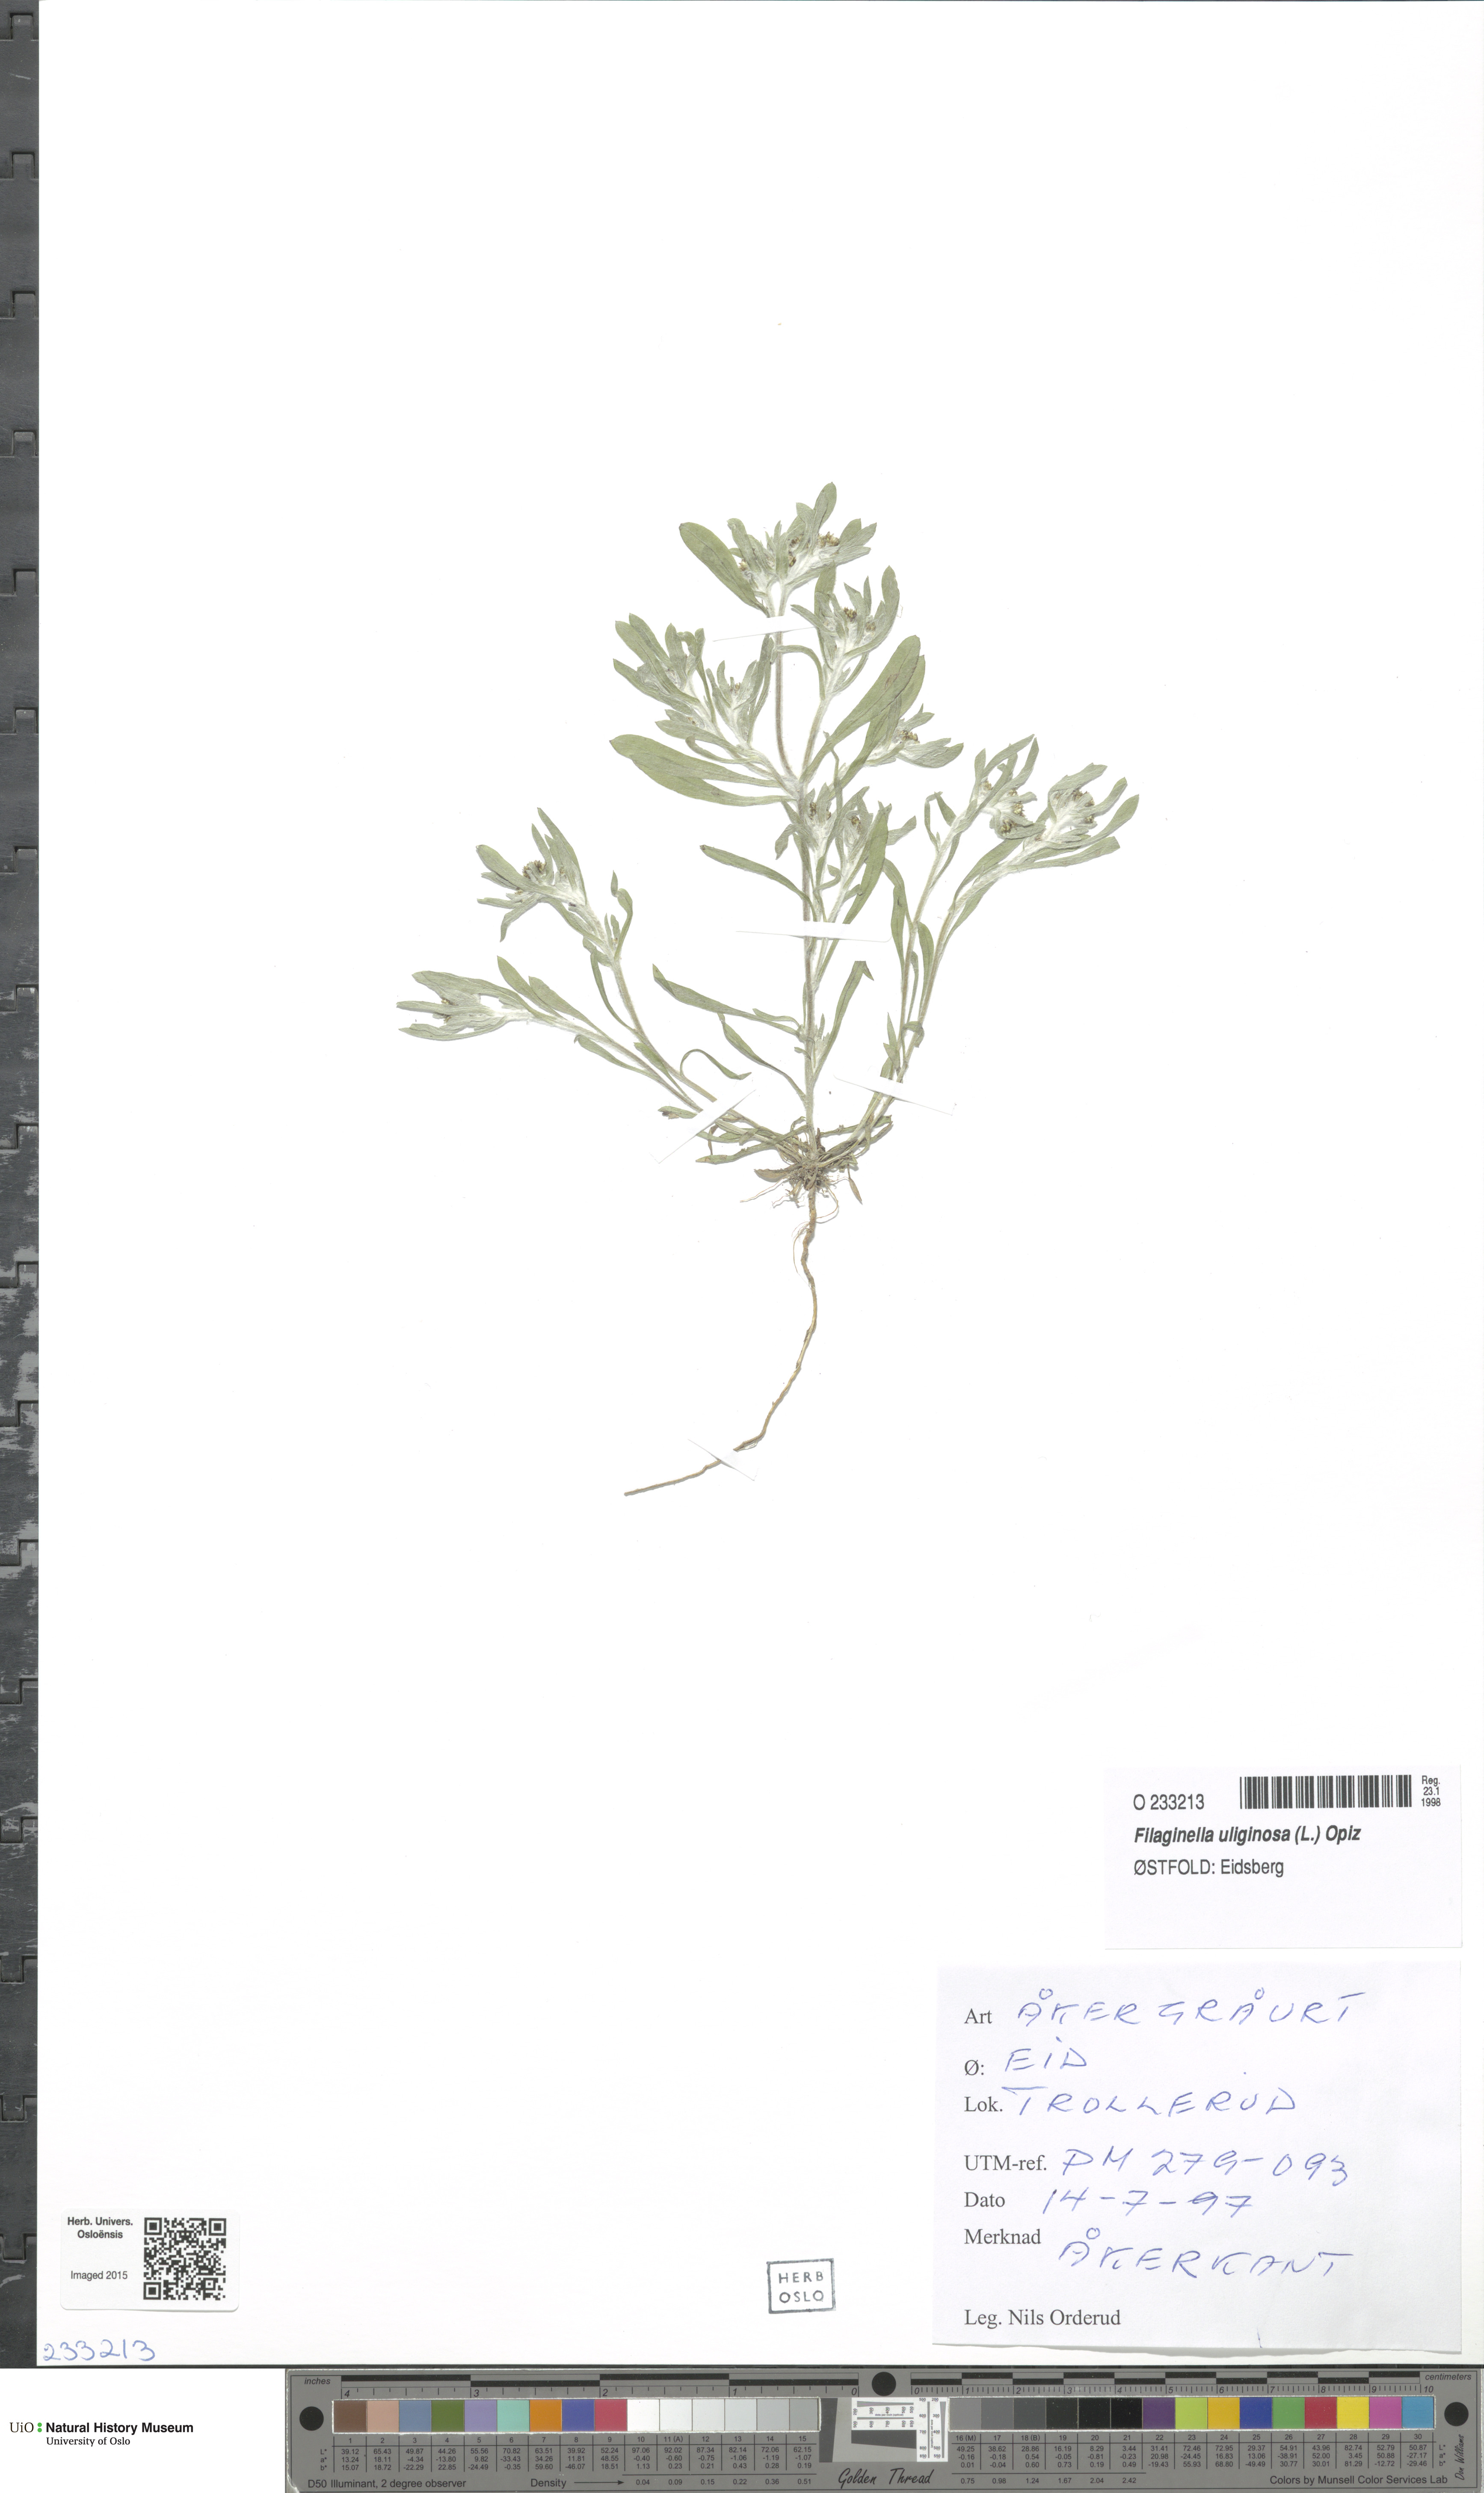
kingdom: Plantae
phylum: Tracheophyta
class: Magnoliopsida
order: Asterales
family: Asteraceae
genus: Gnaphalium
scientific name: Gnaphalium uliginosum
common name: Marsh cudweed
